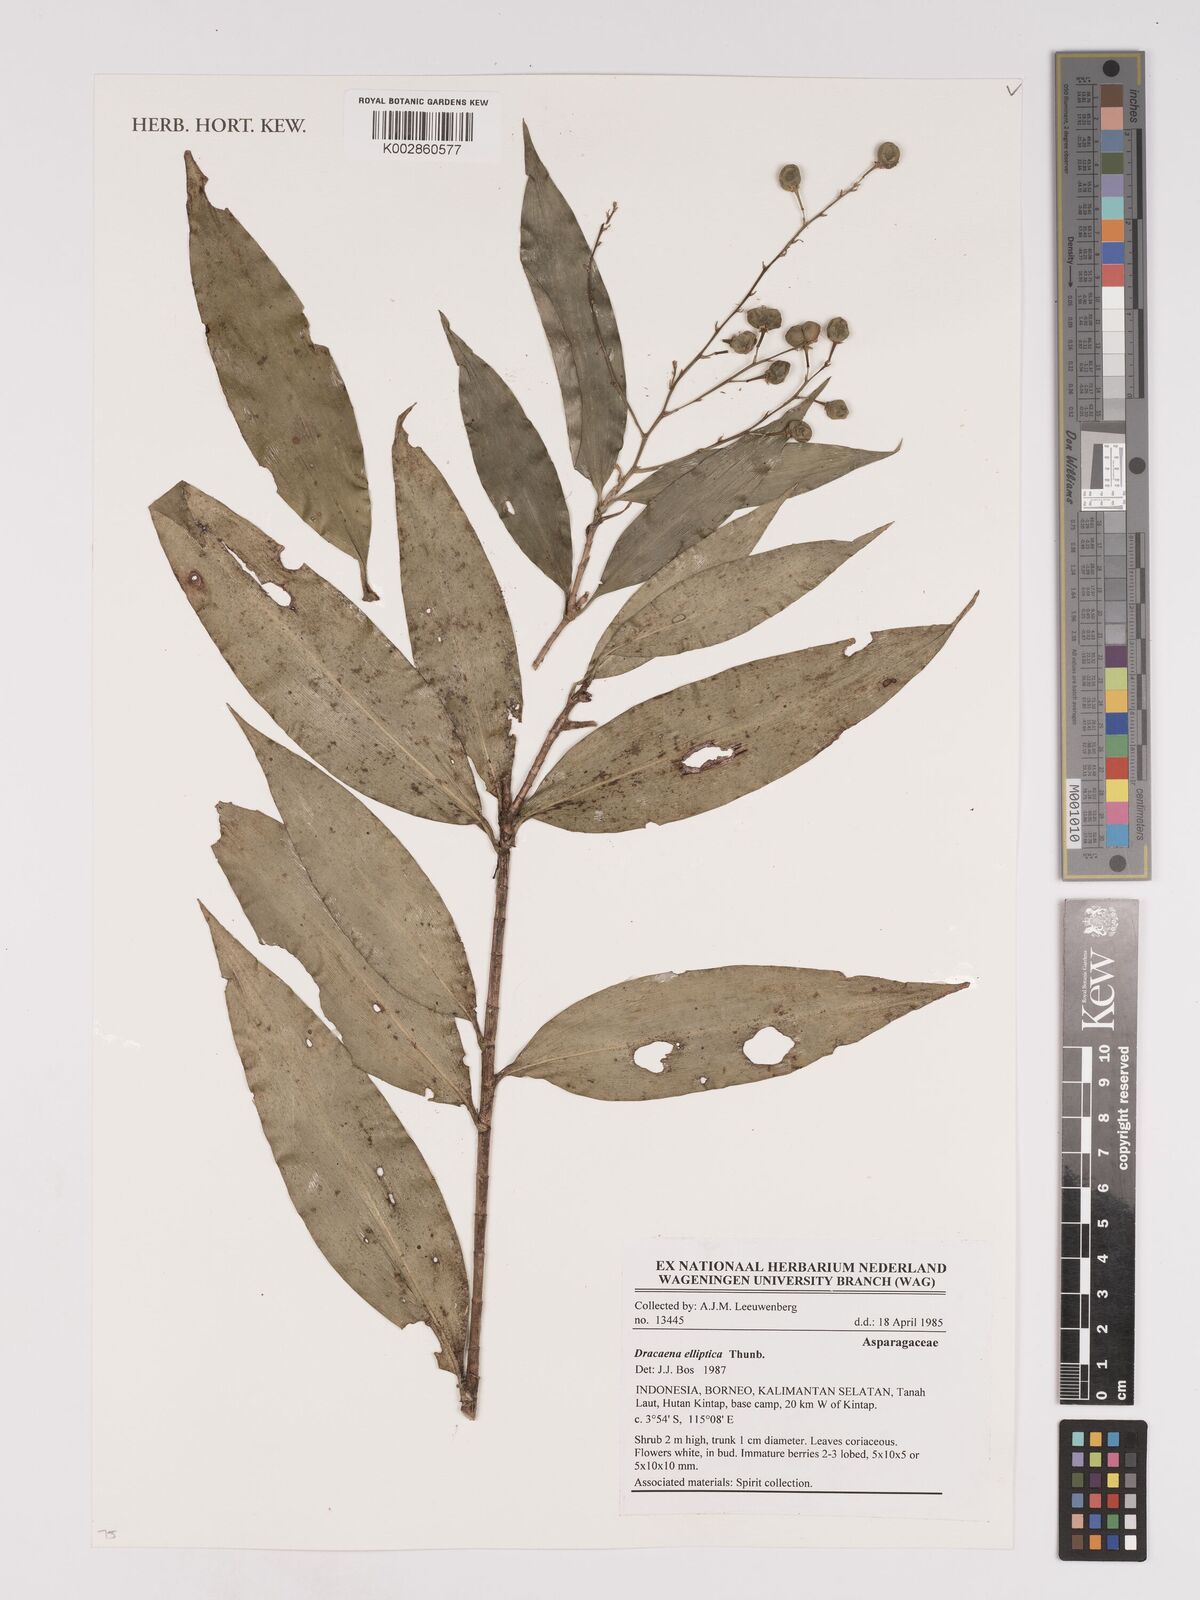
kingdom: Plantae
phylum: Tracheophyta
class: Liliopsida
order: Asparagales
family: Asparagaceae
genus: Dracaena
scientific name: Dracaena elliptica
